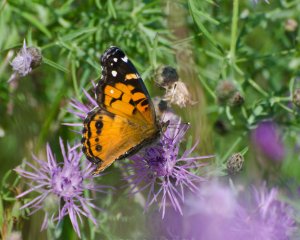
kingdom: Animalia
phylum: Arthropoda
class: Insecta
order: Lepidoptera
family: Nymphalidae
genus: Vanessa
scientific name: Vanessa virginiensis
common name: American Lady
